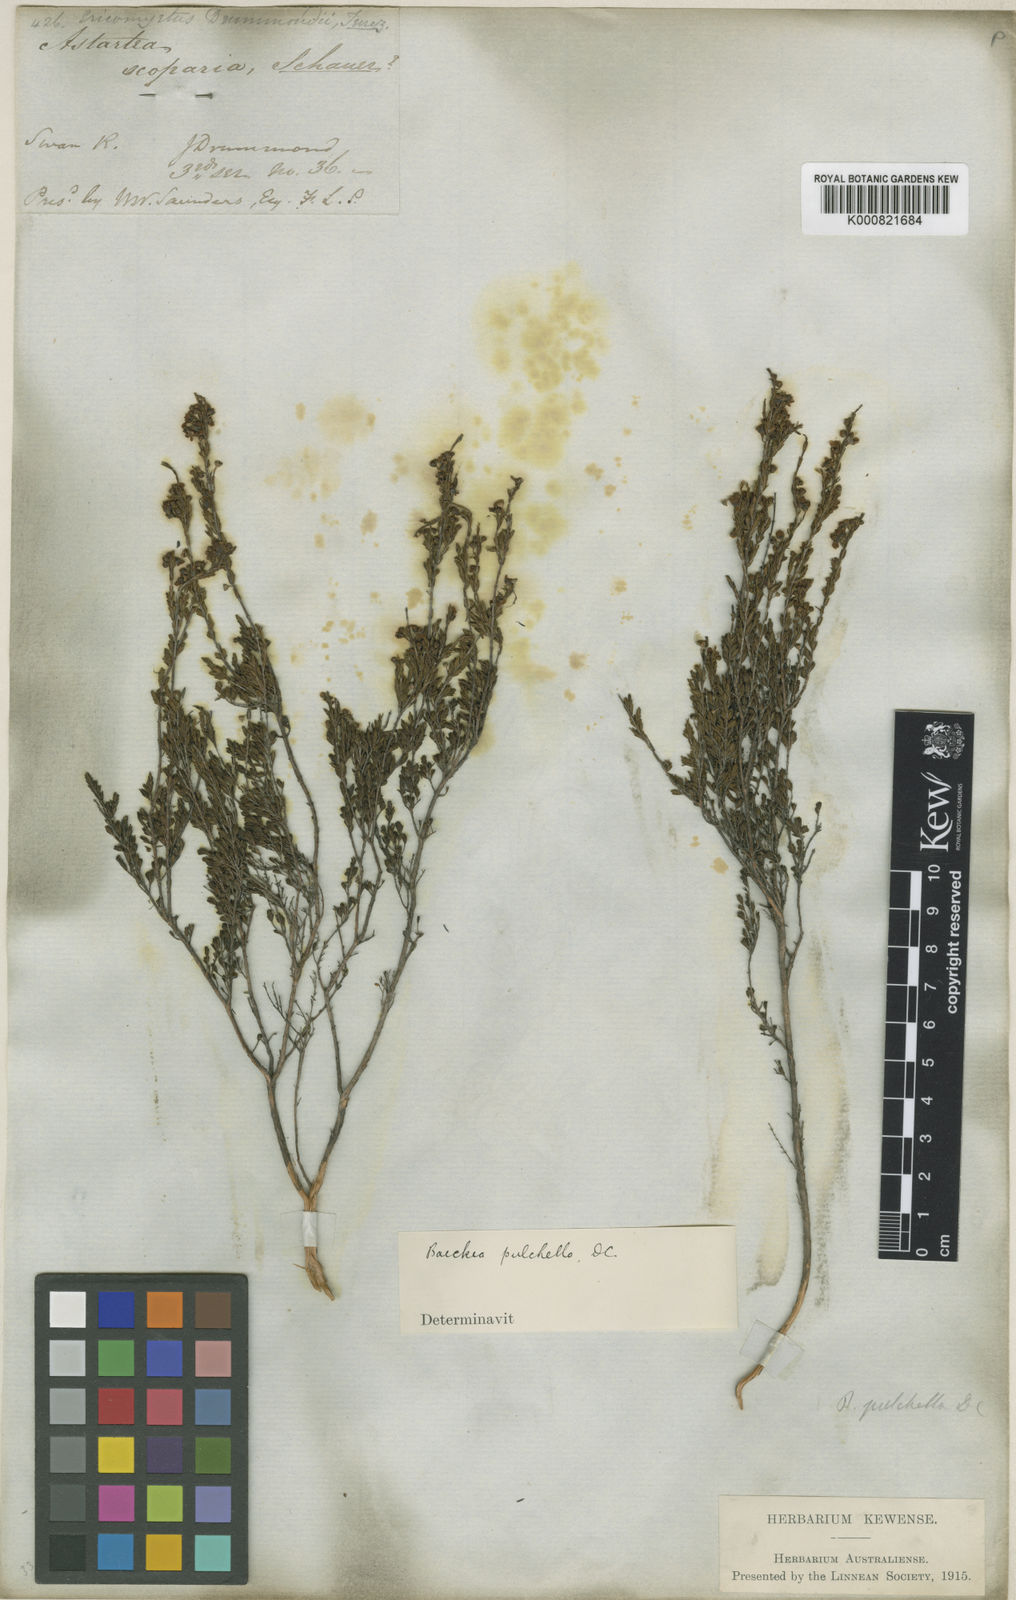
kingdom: Plantae
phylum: Tracheophyta
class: Magnoliopsida
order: Myrtales
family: Myrtaceae
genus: Astartea
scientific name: Astartea pulchella
